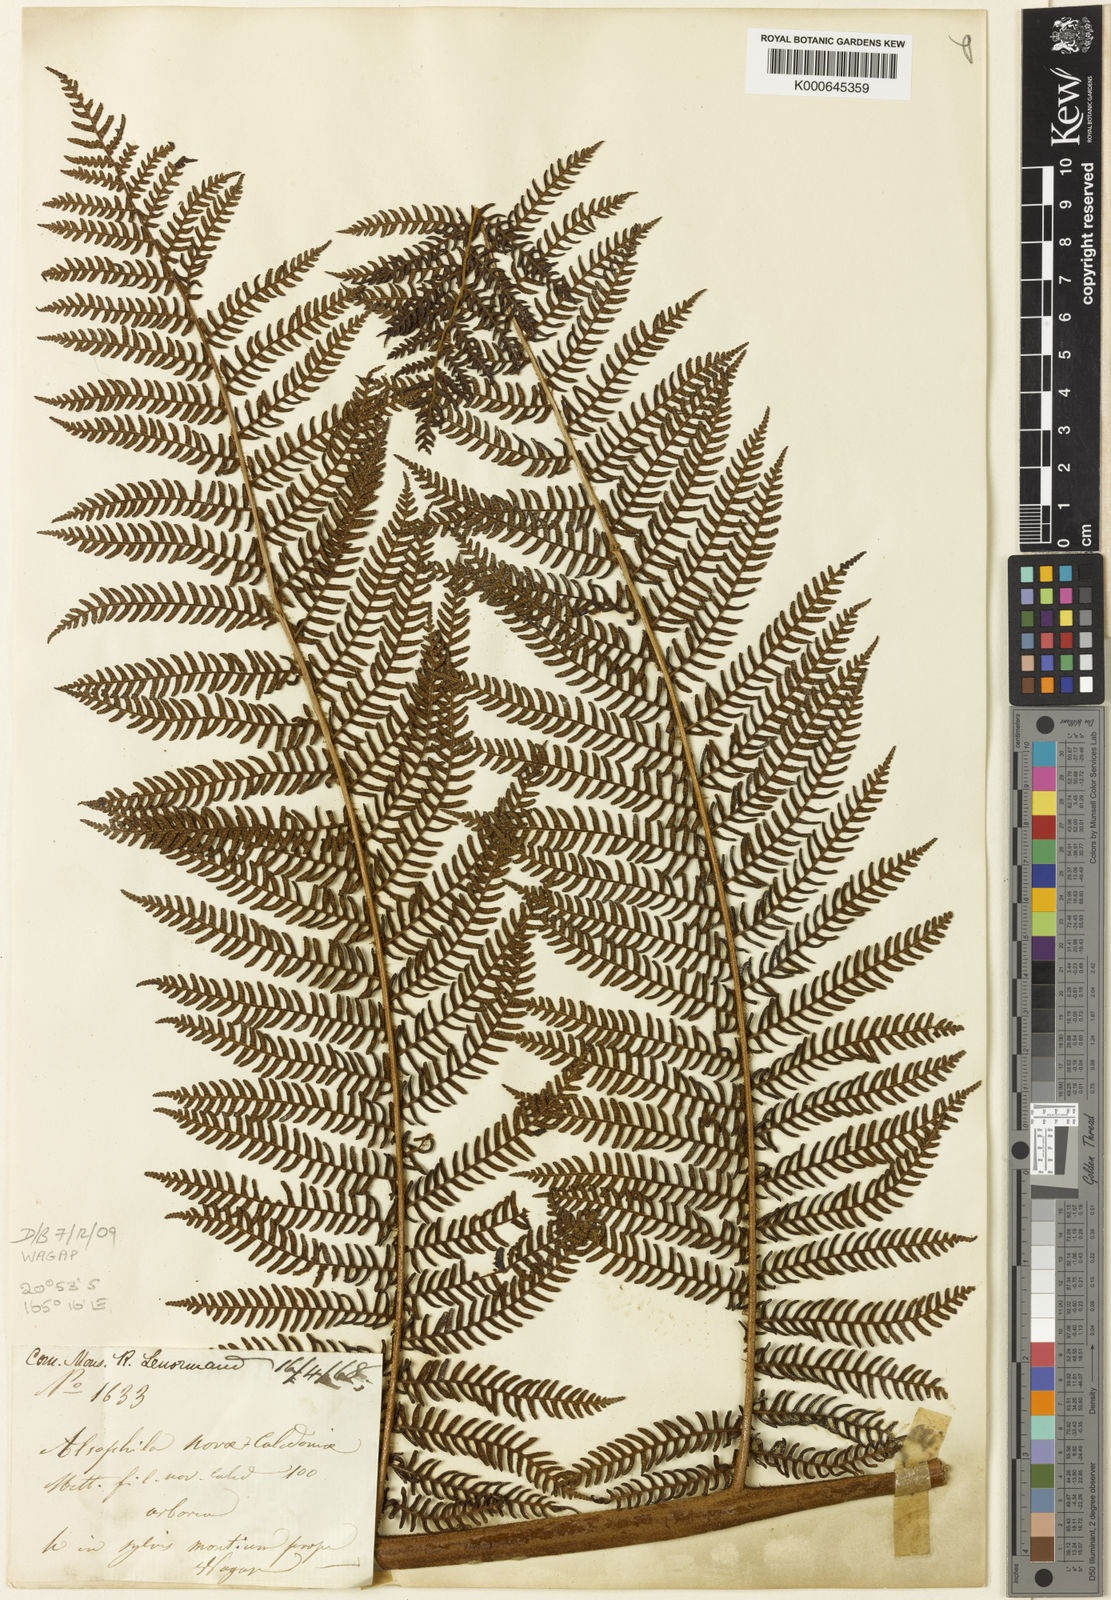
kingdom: Plantae
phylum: Tracheophyta
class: Polypodiopsida
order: Cyatheales
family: Cyatheaceae
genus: Sphaeropteris
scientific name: Sphaeropteris novae-caledoniae
